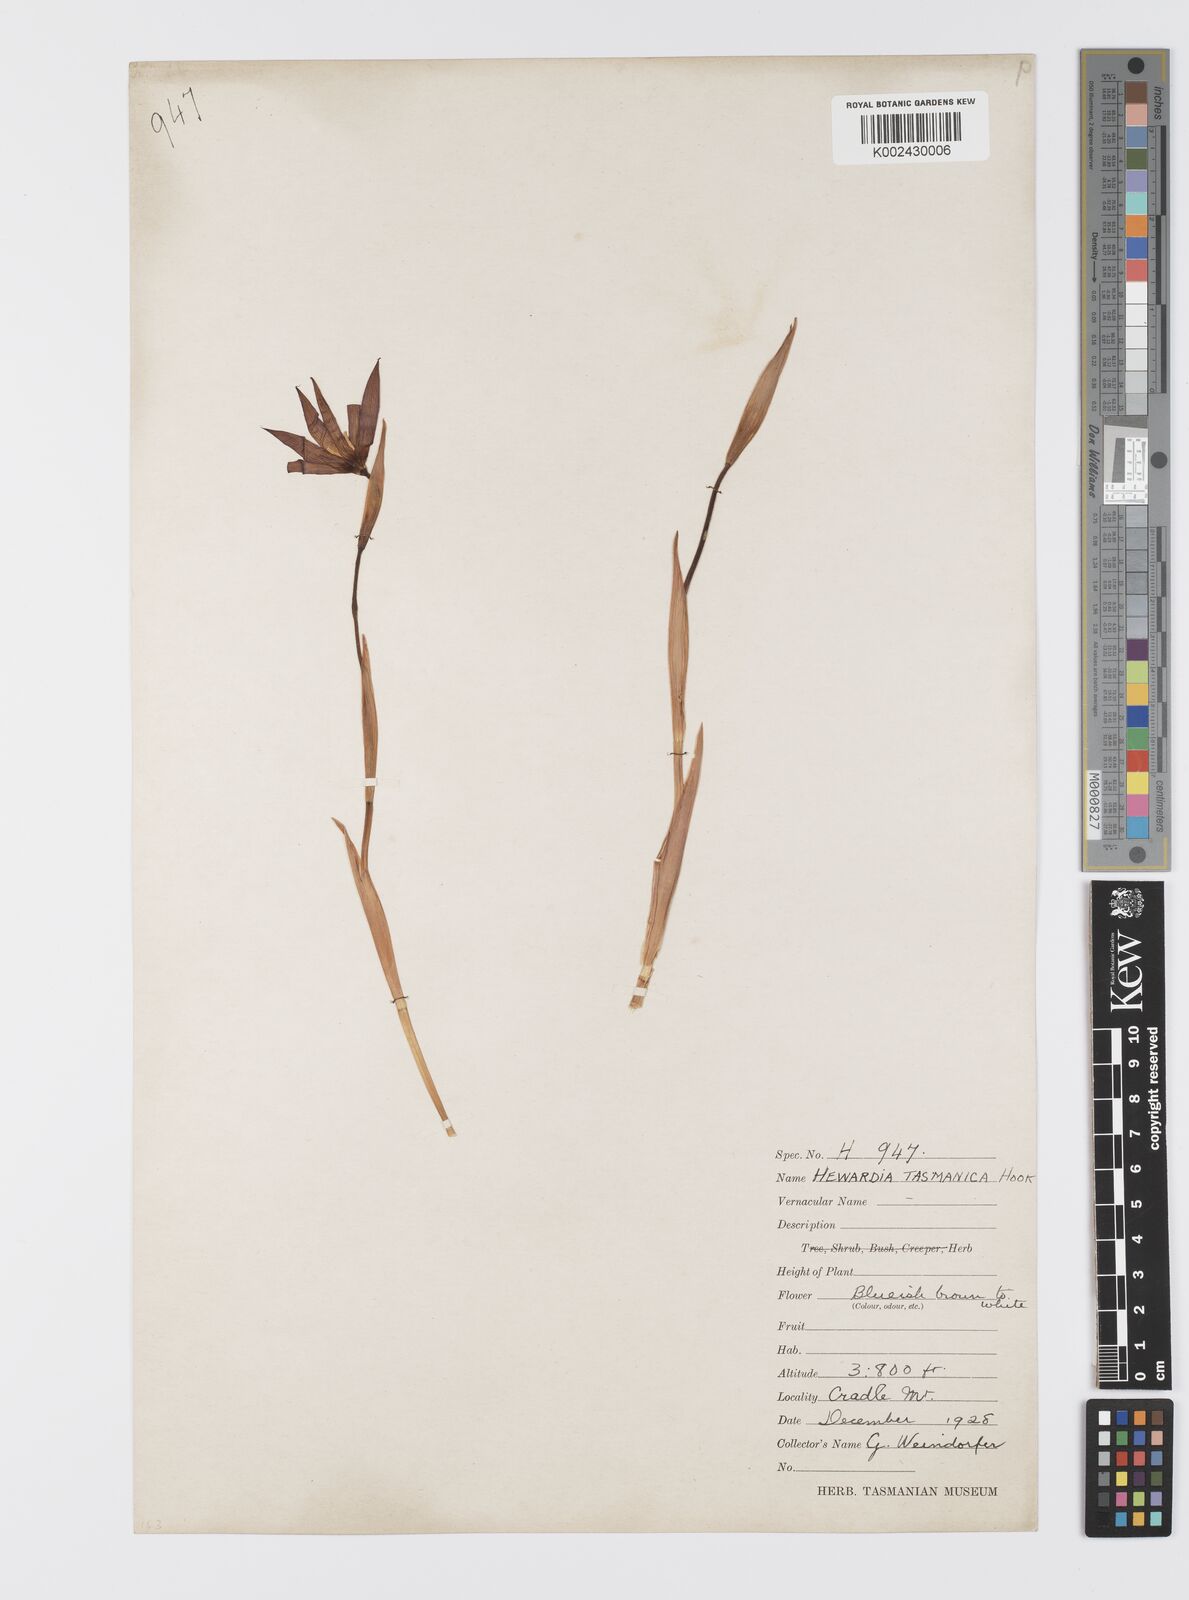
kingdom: Plantae
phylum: Tracheophyta
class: Liliopsida
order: Asparagales
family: Iridaceae
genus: Isophysis
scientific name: Isophysis tasmanica
